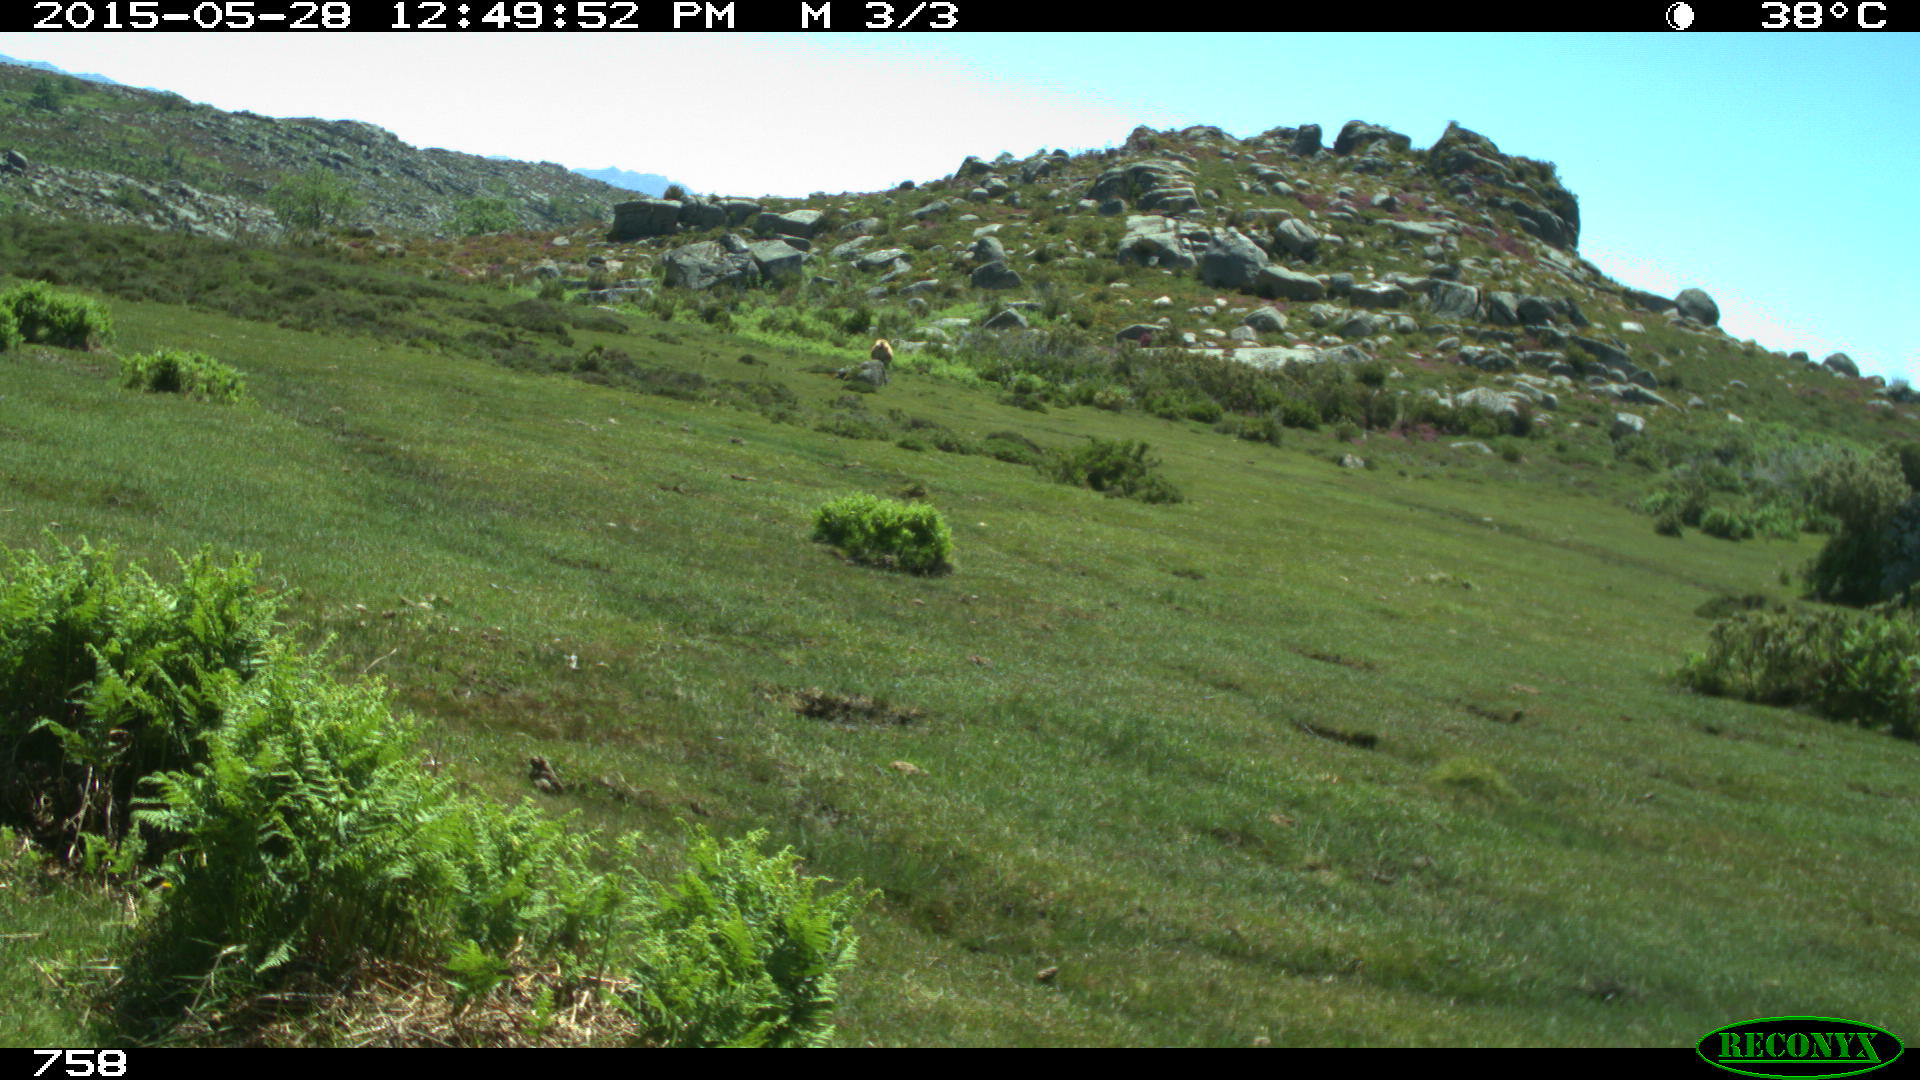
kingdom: Animalia
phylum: Chordata
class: Mammalia
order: Artiodactyla
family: Bovidae
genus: Bos
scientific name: Bos taurus
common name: Domesticated cattle
